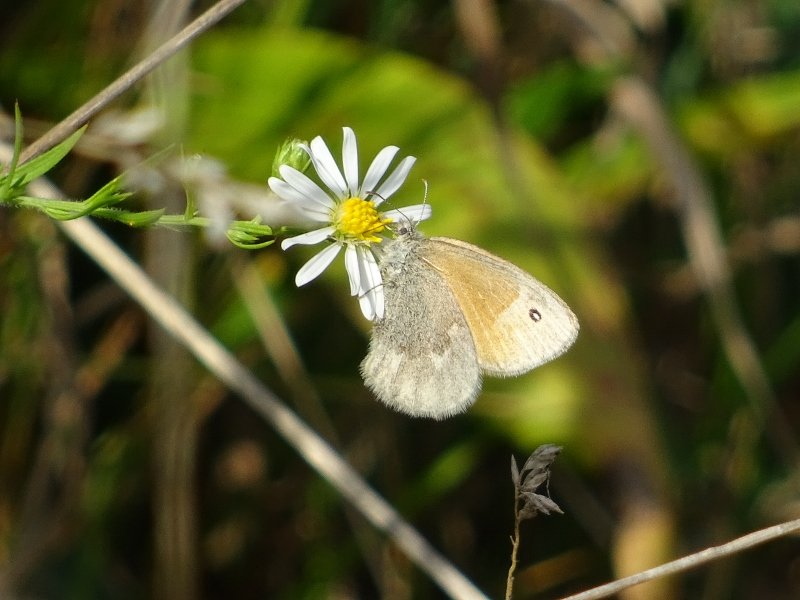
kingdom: Animalia
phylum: Arthropoda
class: Insecta
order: Lepidoptera
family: Nymphalidae
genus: Coenonympha
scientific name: Coenonympha tullia
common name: Large Heath
